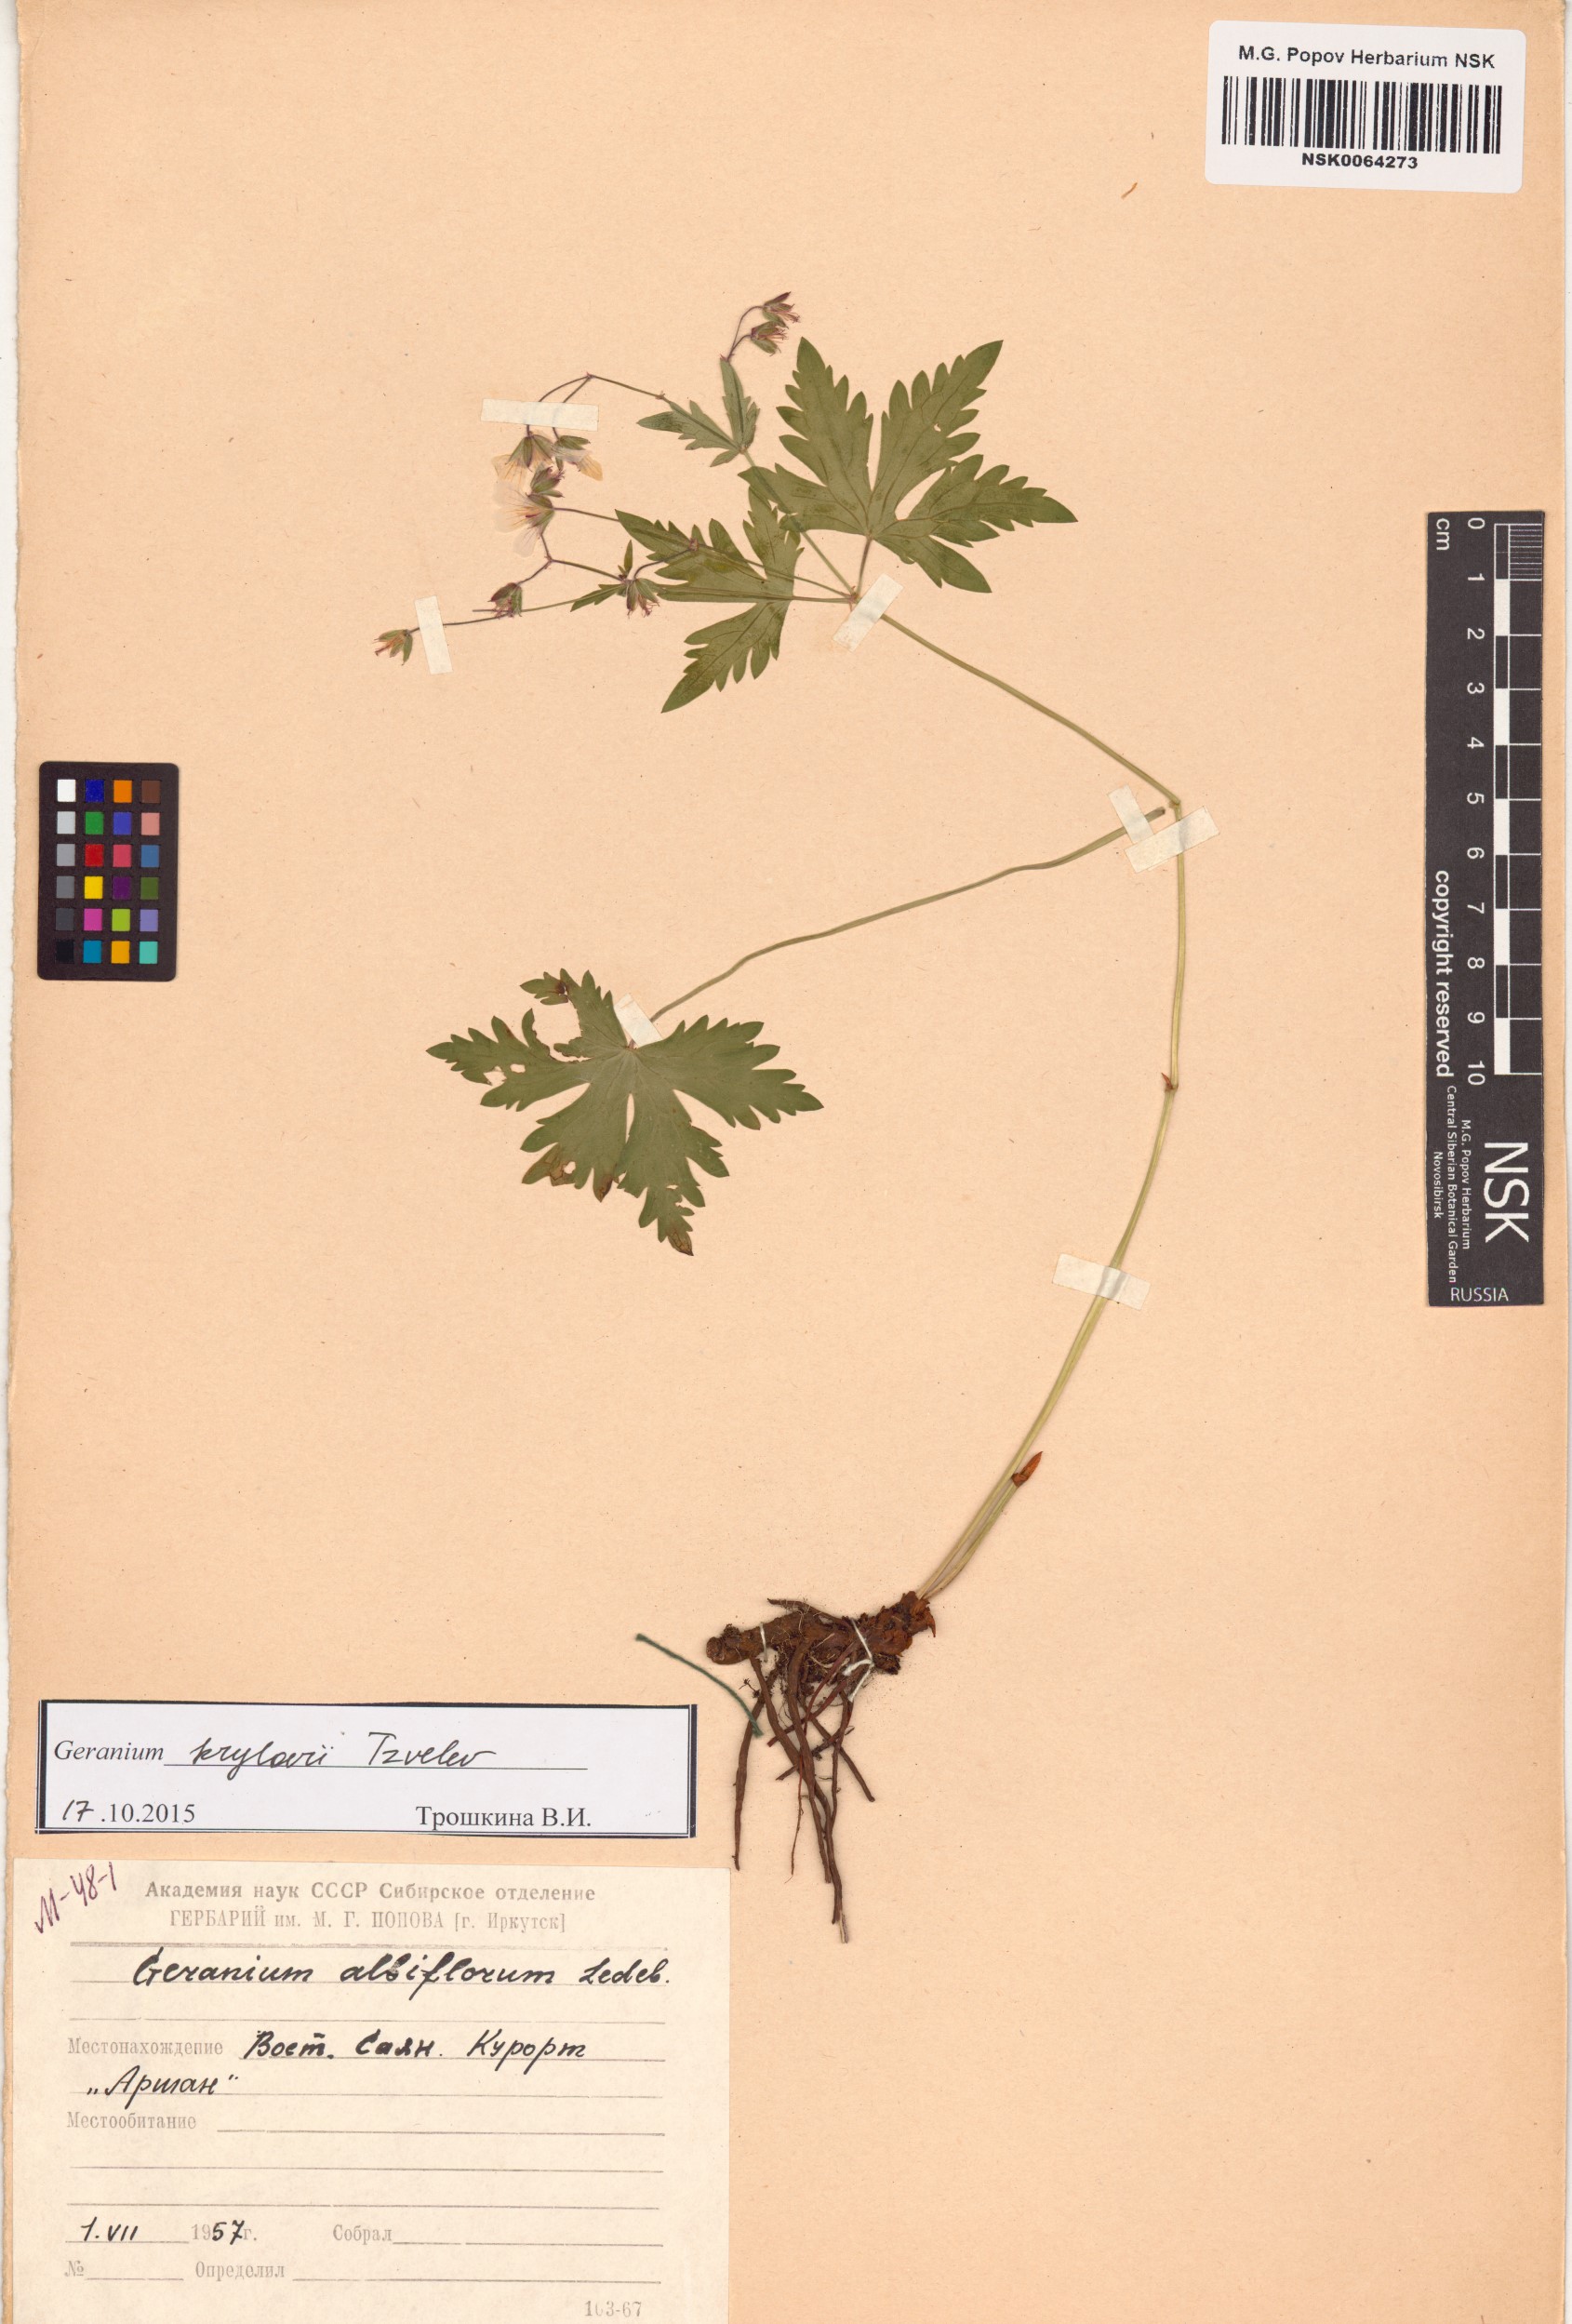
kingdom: Plantae
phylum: Tracheophyta
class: Magnoliopsida
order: Geraniales
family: Geraniaceae
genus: Geranium
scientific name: Geranium sylvaticum
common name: Wood crane's-bill
